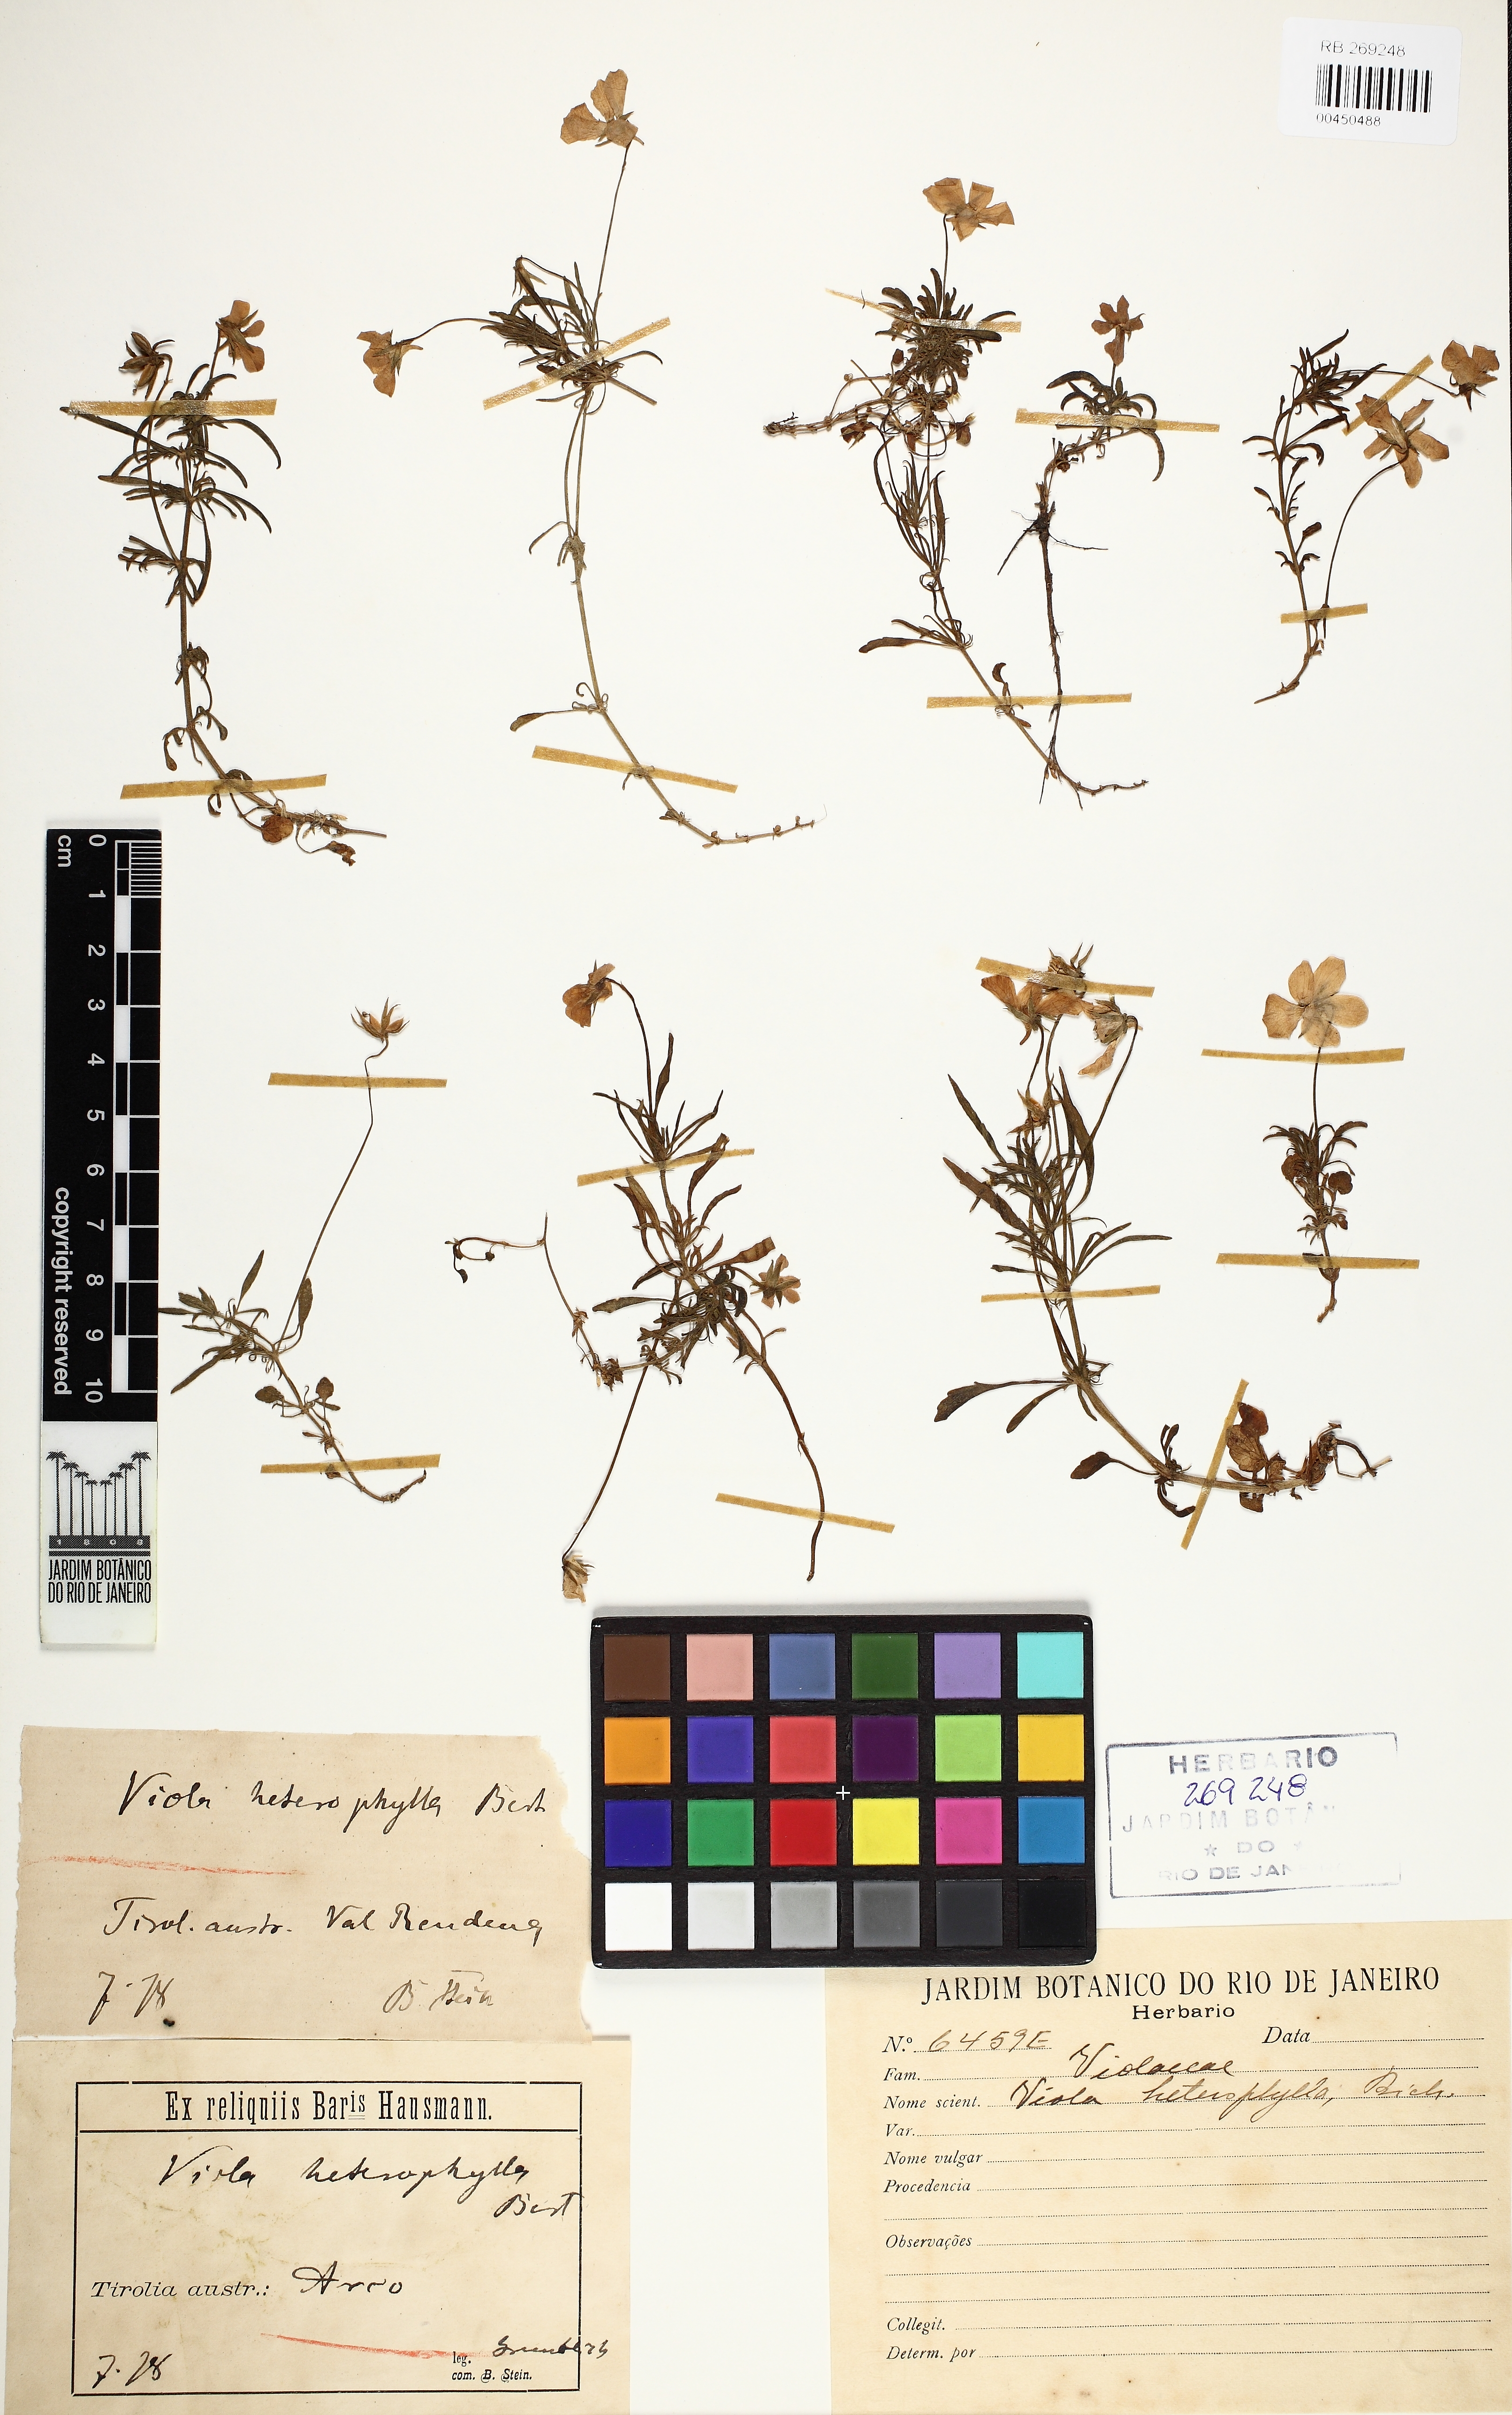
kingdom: Plantae
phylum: Tracheophyta
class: Magnoliopsida
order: Malpighiales
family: Violaceae
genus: Viola
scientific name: Viola bertolonii
